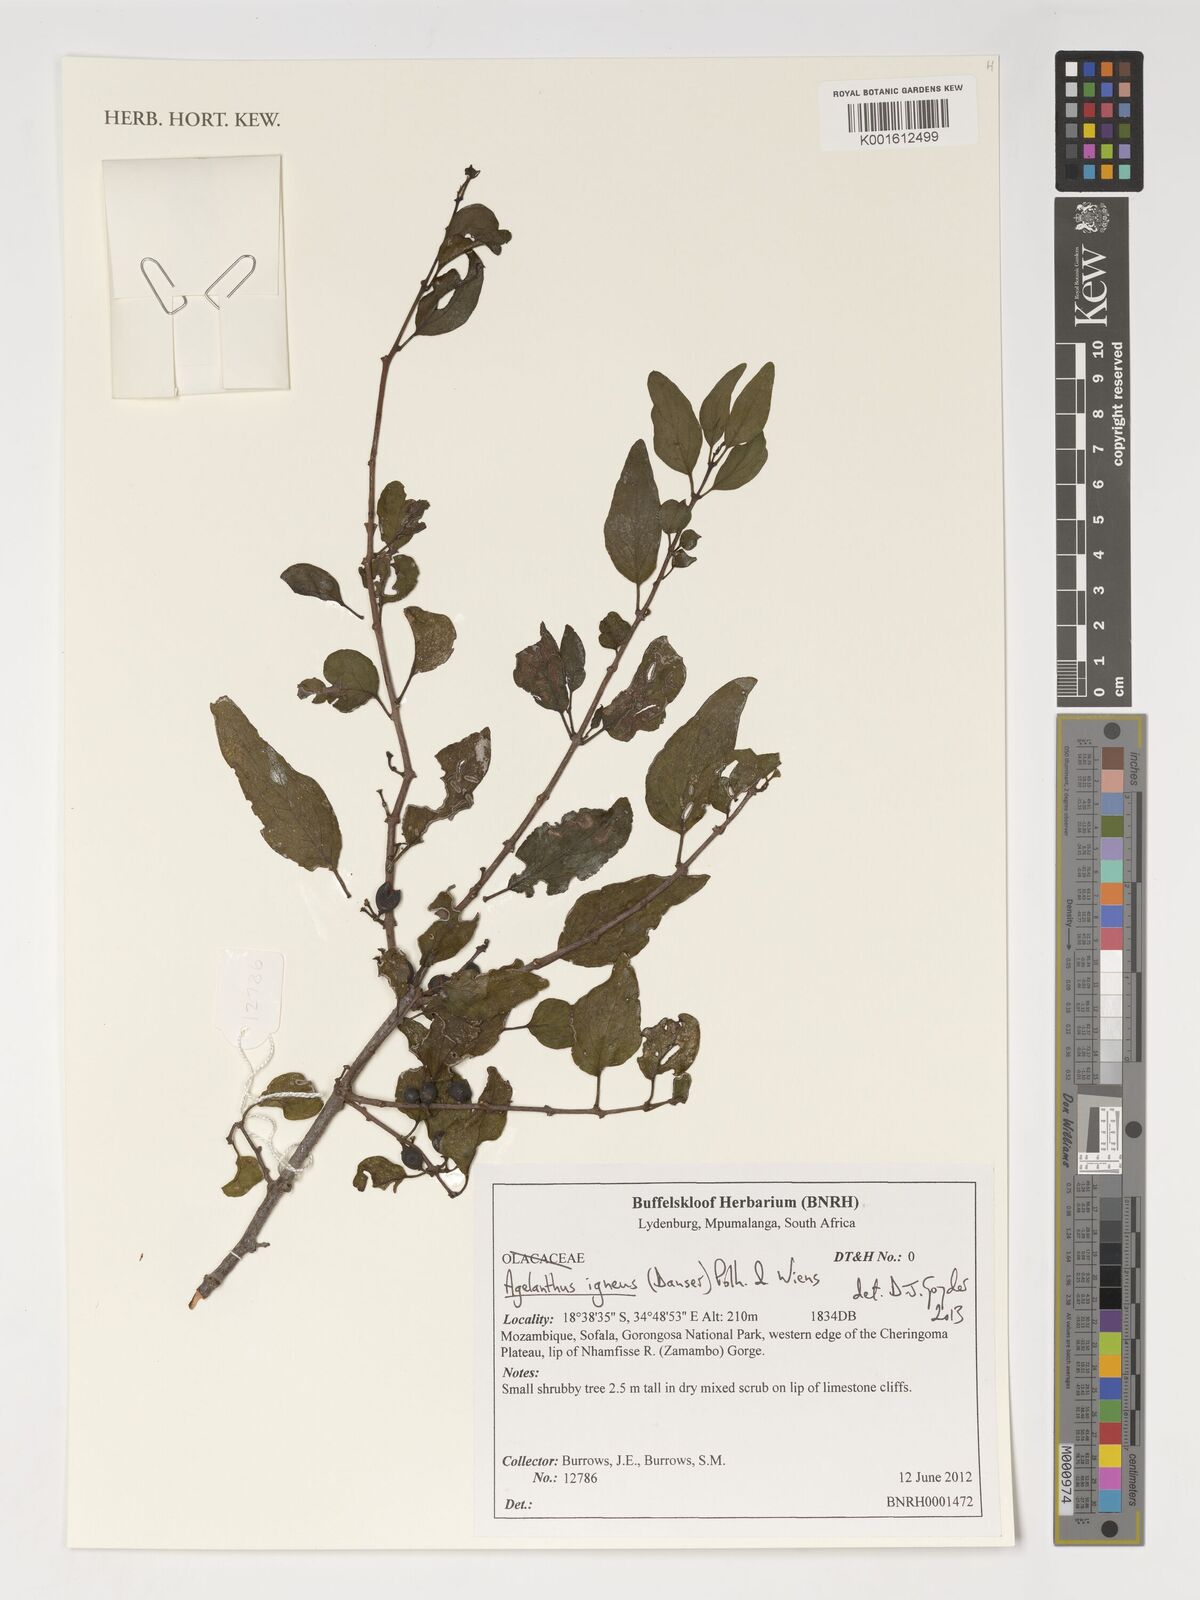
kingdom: Plantae
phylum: Tracheophyta
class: Magnoliopsida
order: Santalales
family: Loranthaceae
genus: Agelanthus
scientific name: Agelanthus igneus
